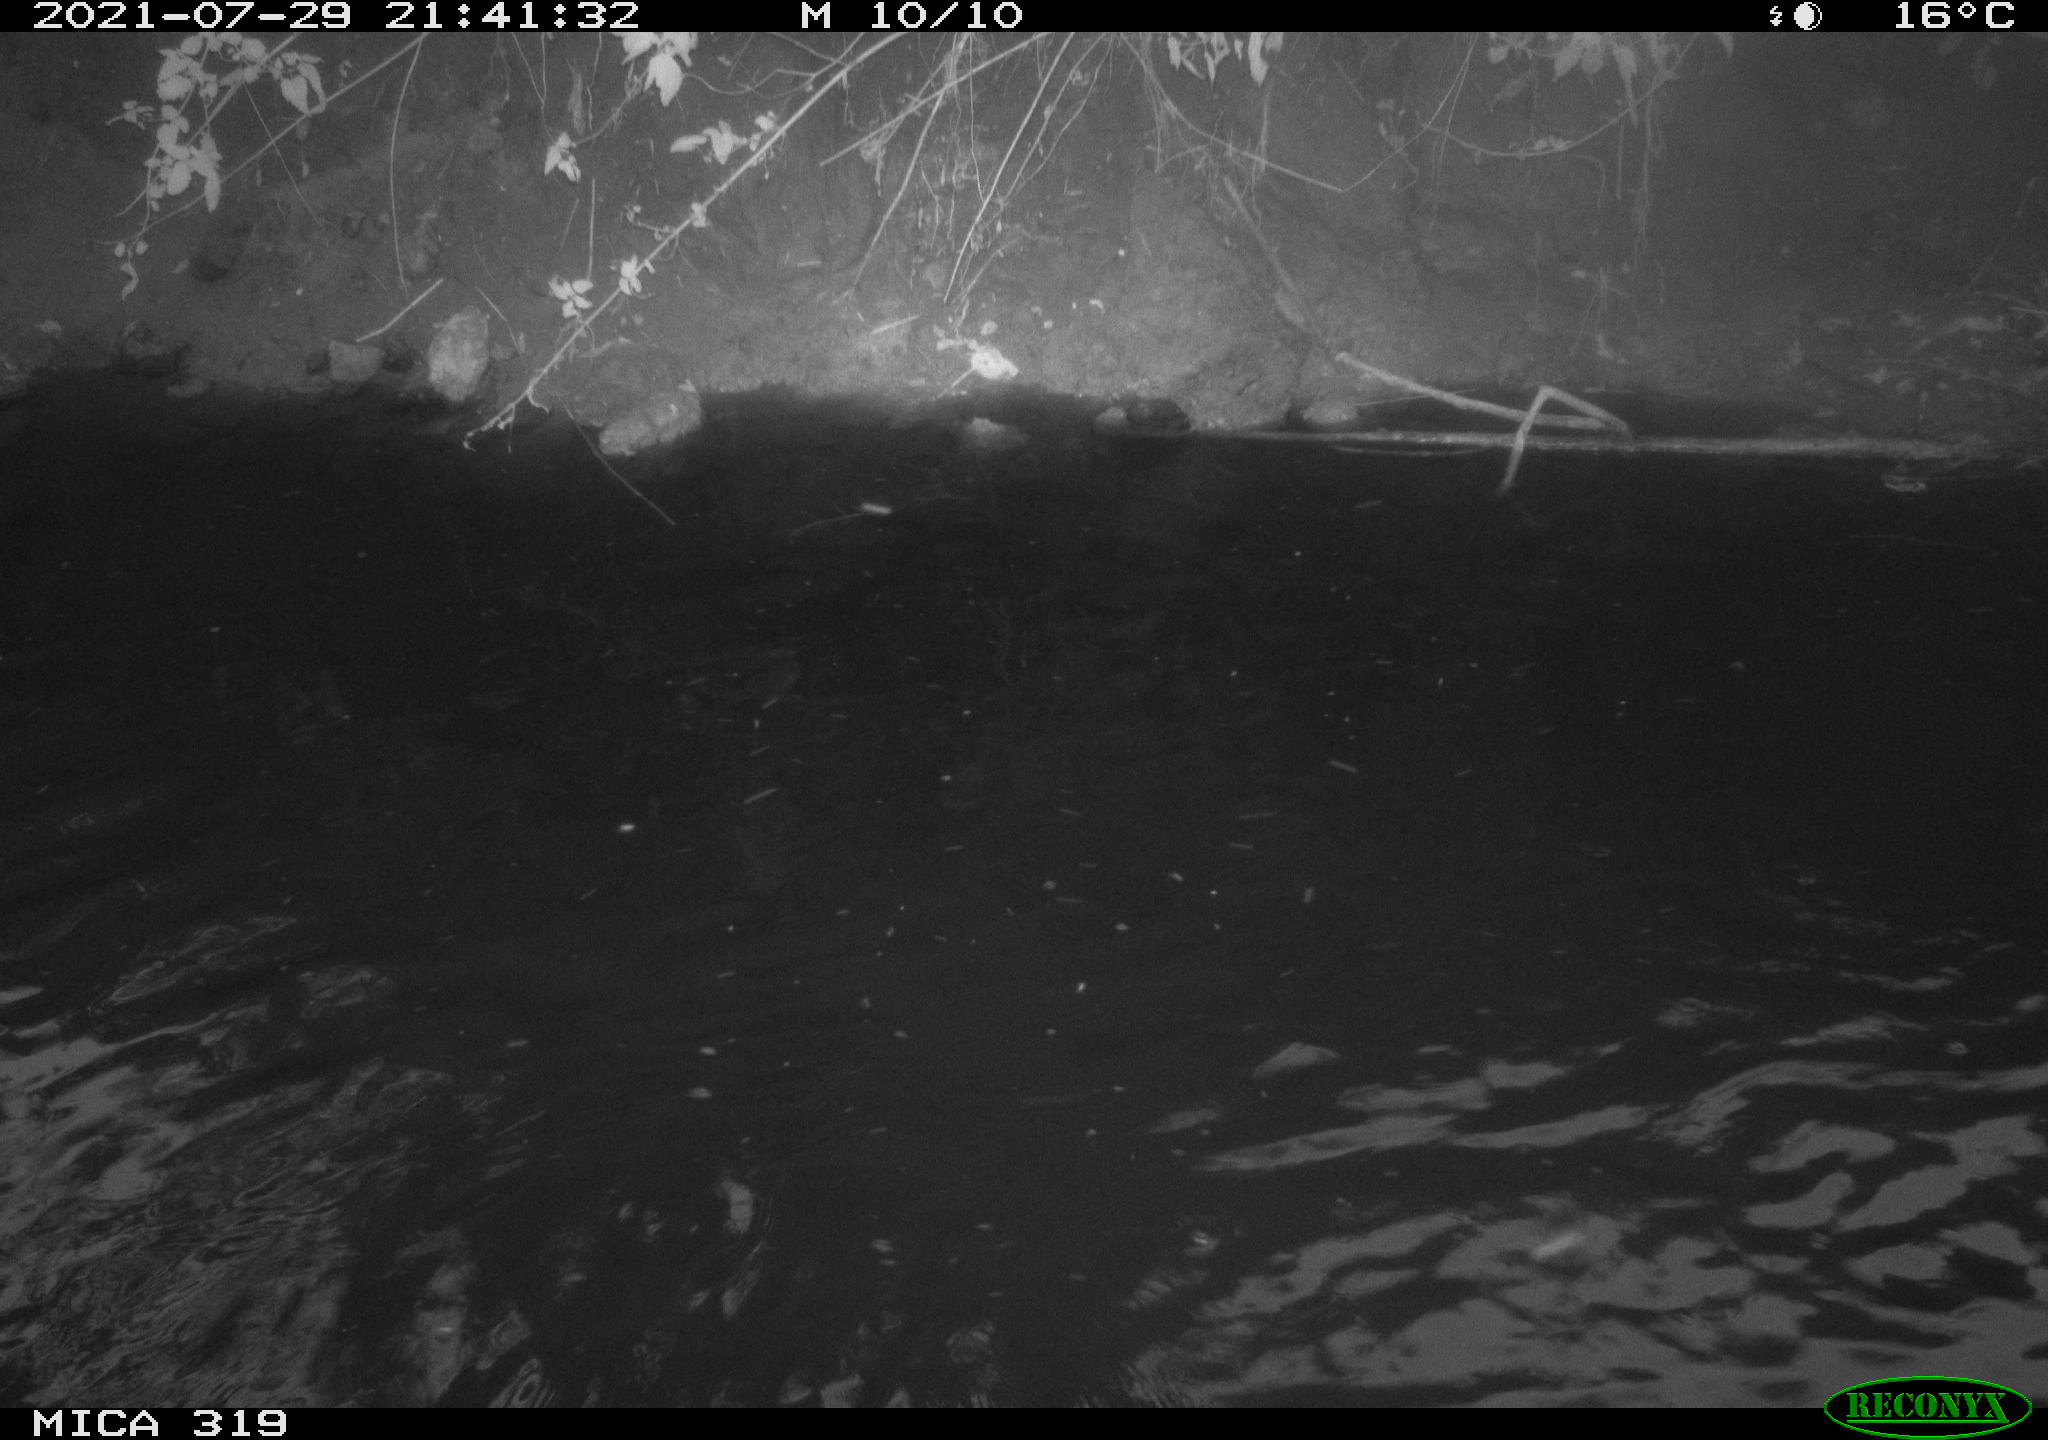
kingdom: Animalia
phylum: Chordata
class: Aves
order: Anseriformes
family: Anatidae
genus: Anas
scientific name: Anas platyrhynchos
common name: Mallard
